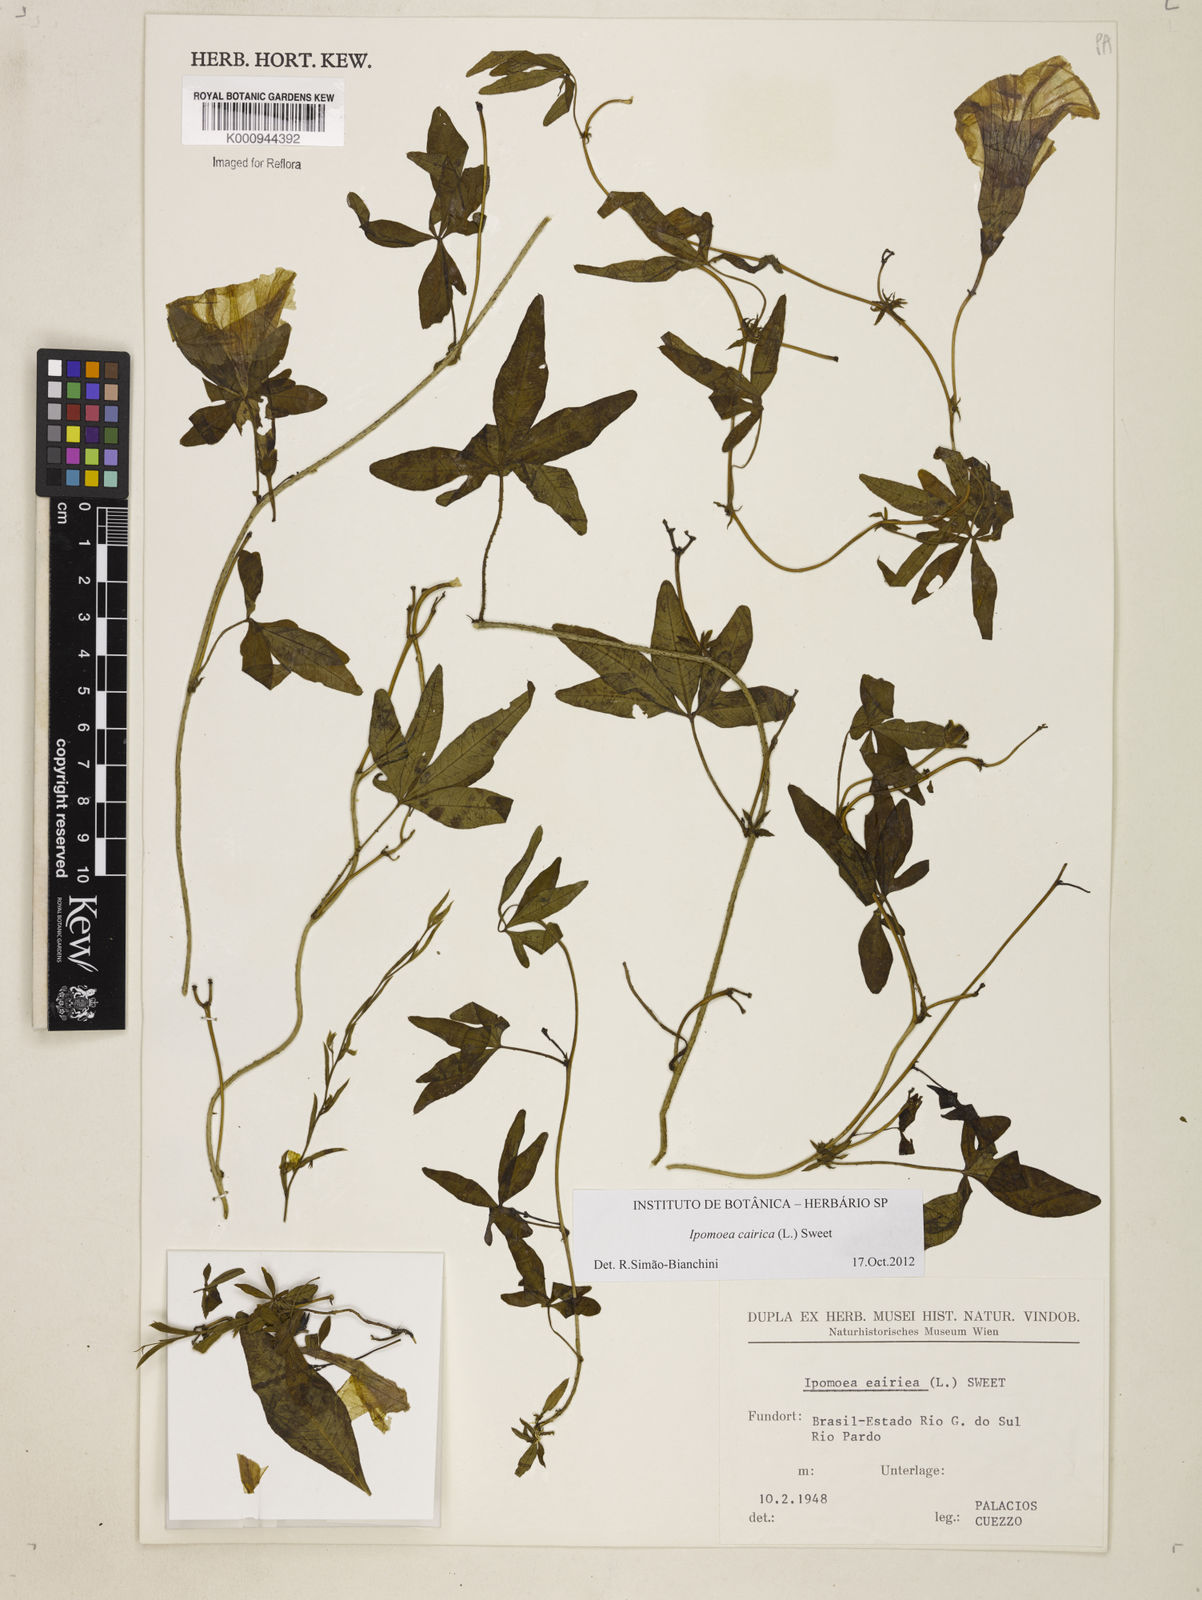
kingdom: Plantae
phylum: Tracheophyta
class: Magnoliopsida
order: Solanales
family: Convolvulaceae
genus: Ipomoea
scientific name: Ipomoea cairica
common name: Mile a minute vine
